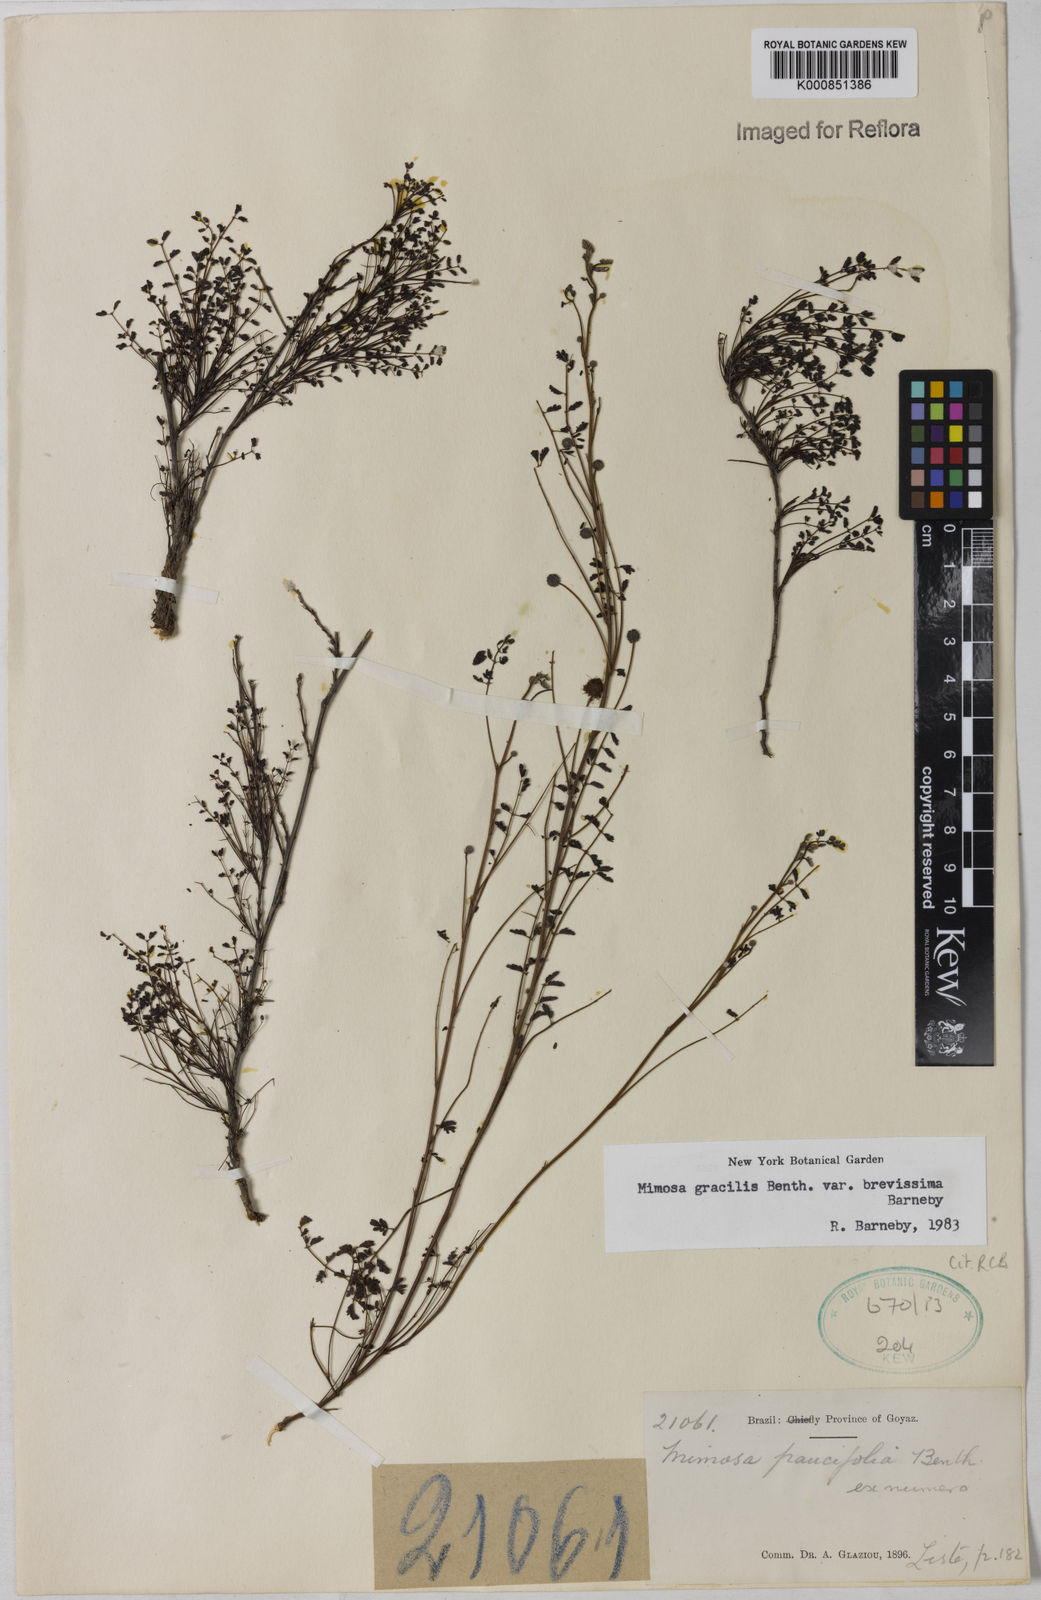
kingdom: Plantae
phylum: Tracheophyta
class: Magnoliopsida
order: Fabales
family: Fabaceae
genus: Mimosa
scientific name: Mimosa gracilis
